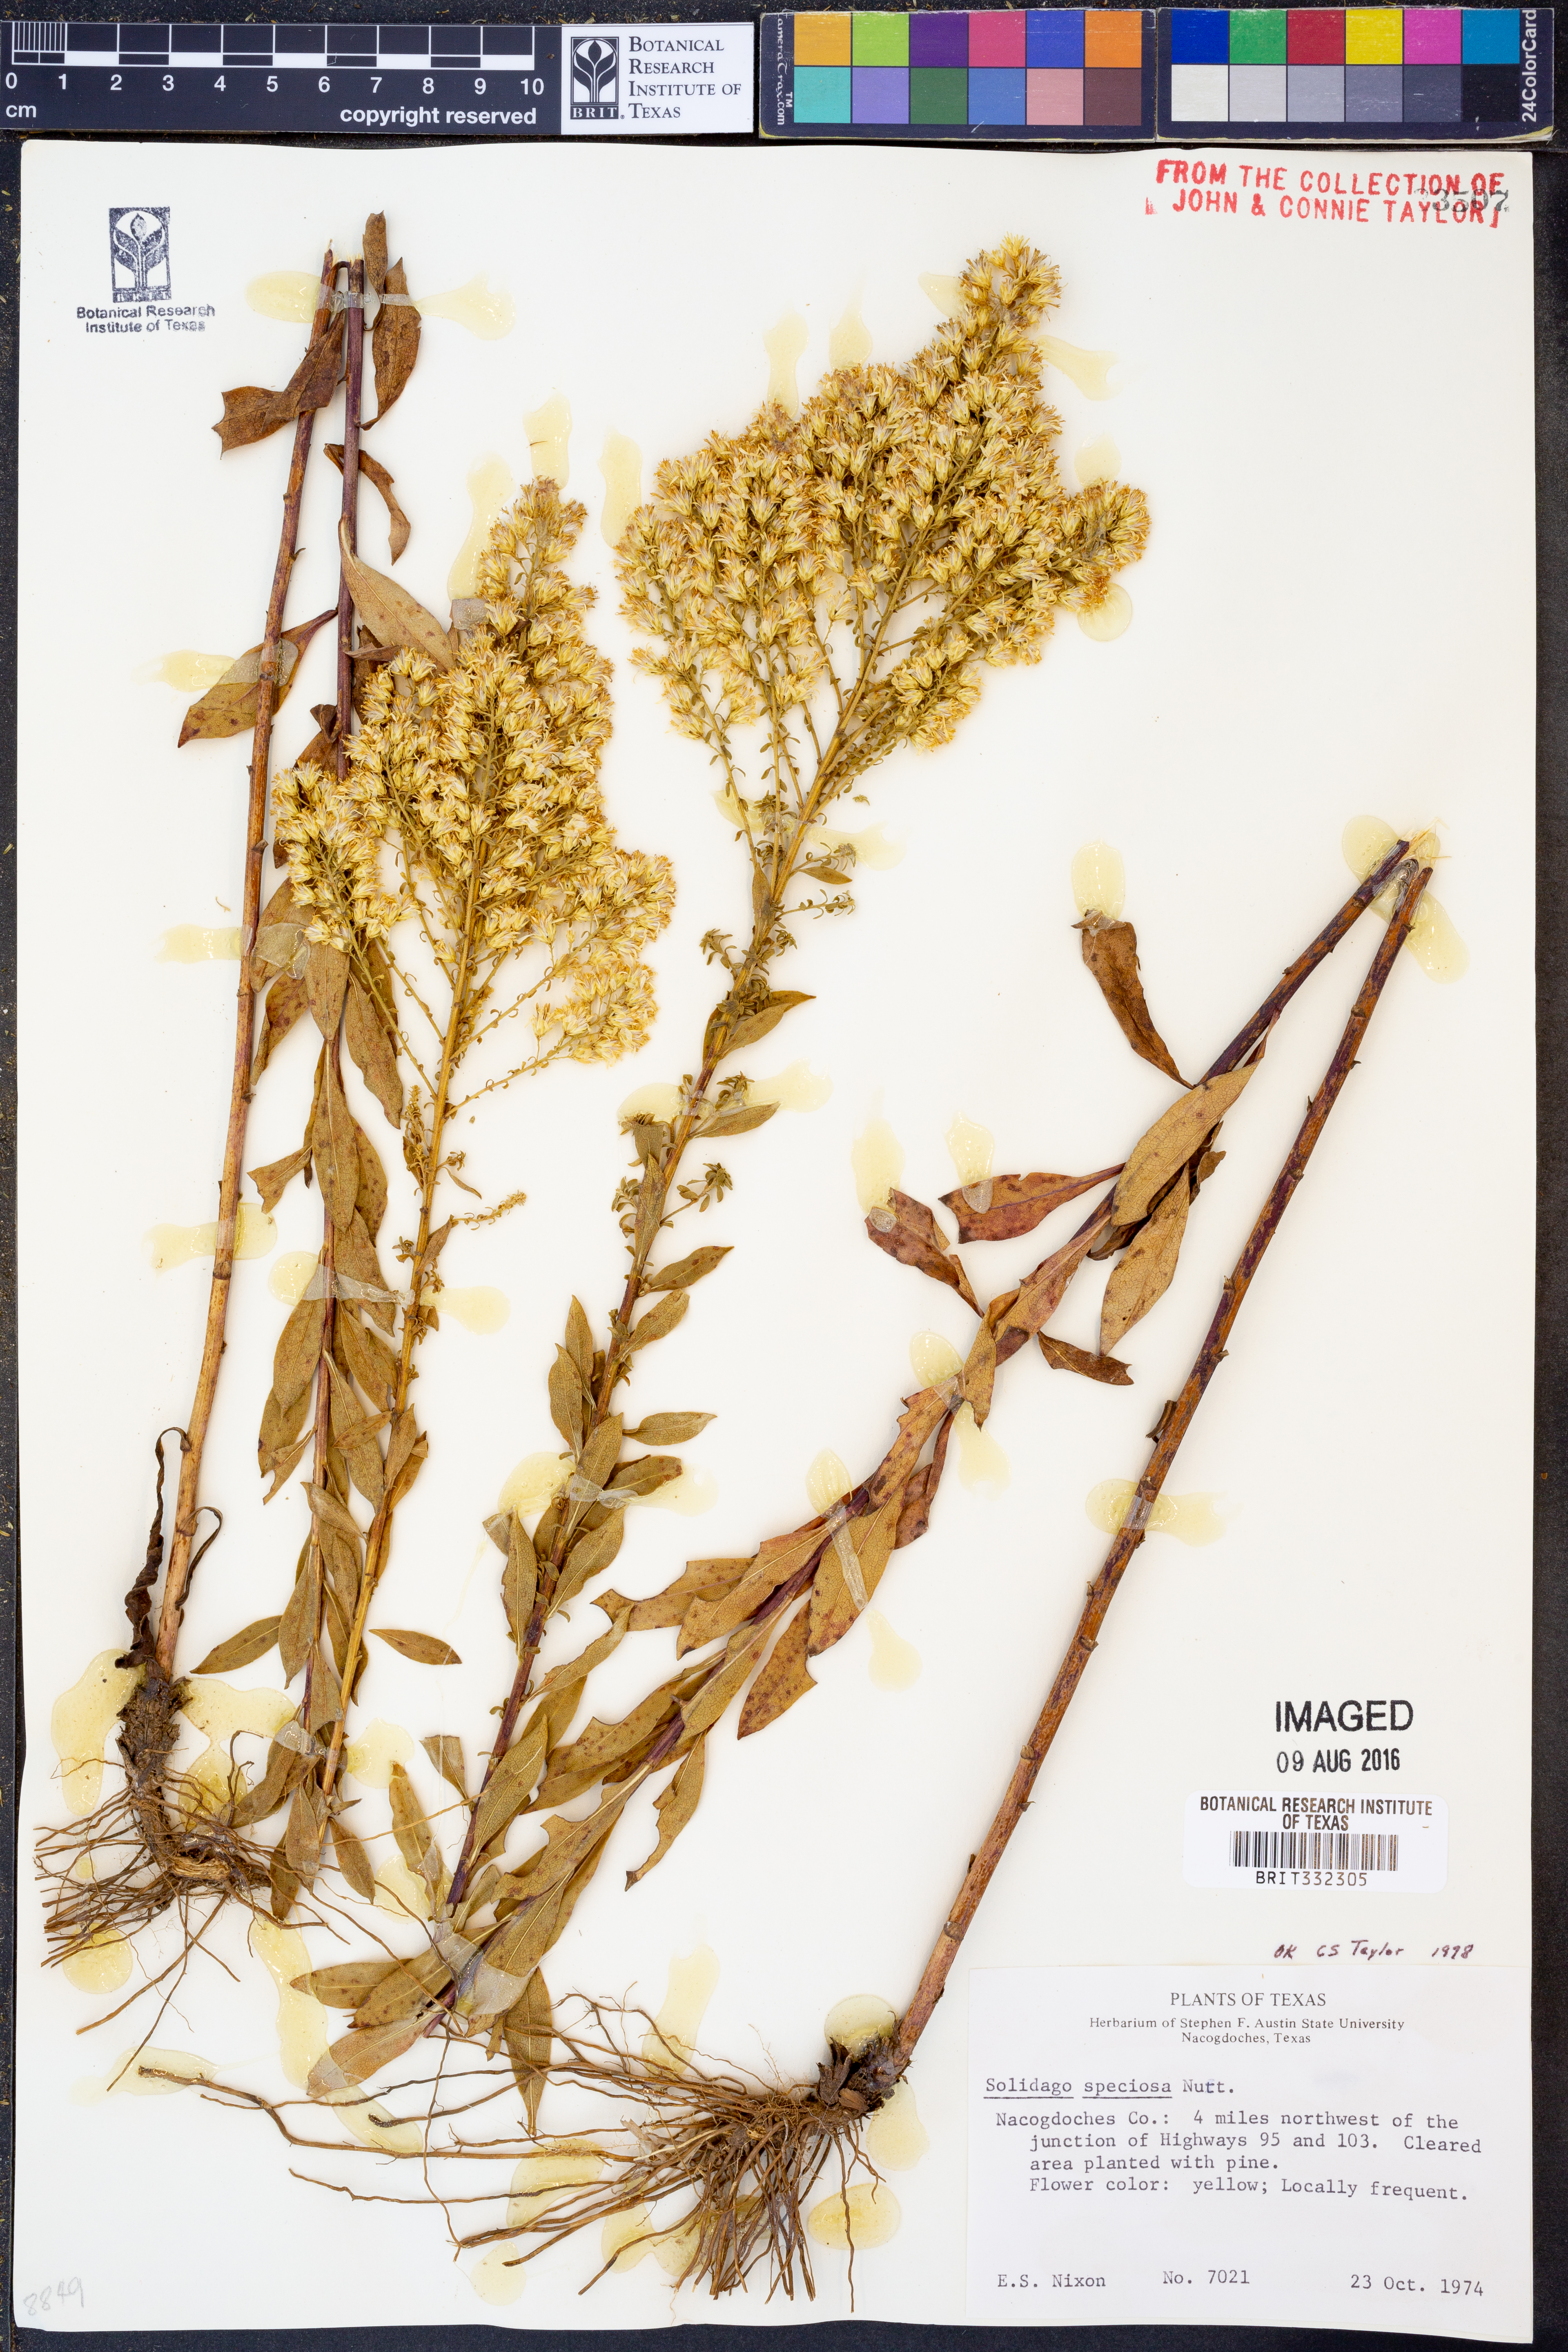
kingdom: Plantae
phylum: Tracheophyta
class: Magnoliopsida
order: Asterales
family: Asteraceae
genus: Solidago
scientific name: Solidago speciosa
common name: Showy goldenrod
